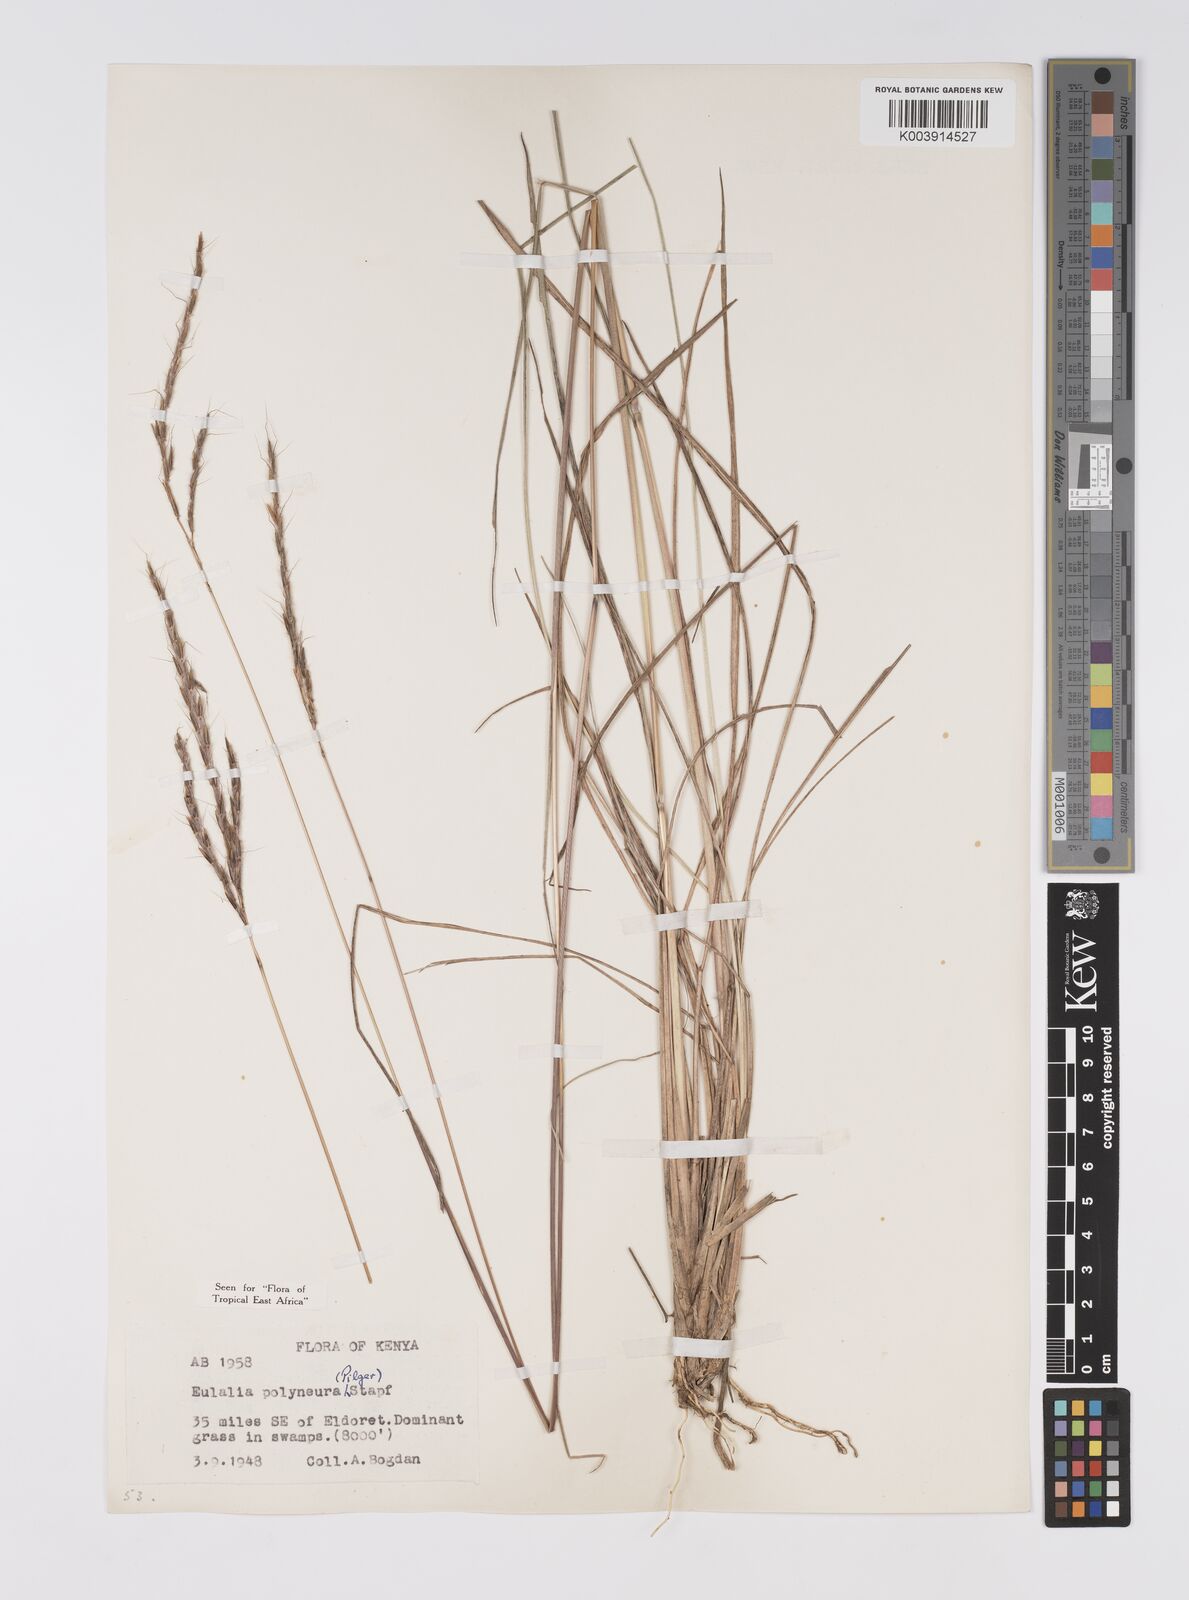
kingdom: Plantae
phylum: Tracheophyta
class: Liliopsida
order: Poales
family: Poaceae
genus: Eulalia
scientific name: Eulalia polyneura
